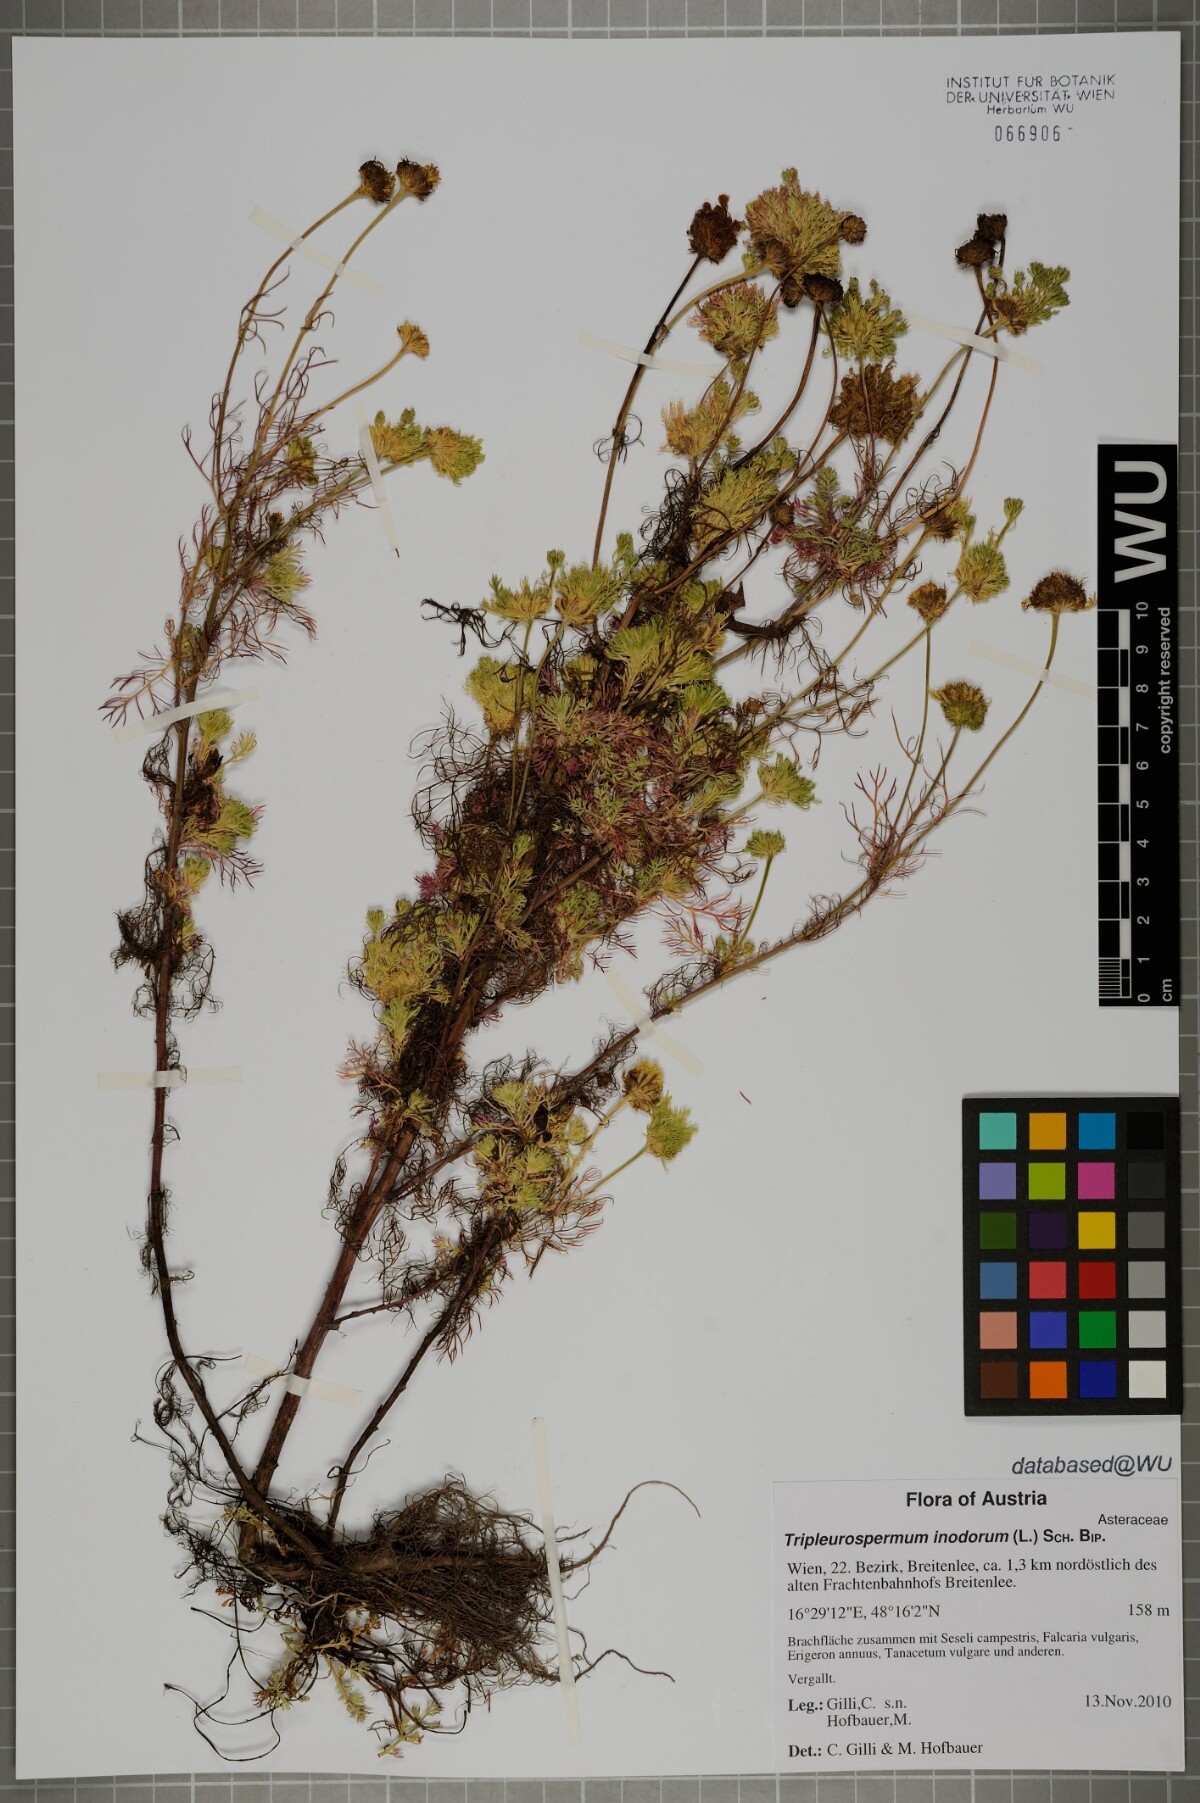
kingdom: Plantae
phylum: Tracheophyta
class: Magnoliopsida
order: Asterales
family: Asteraceae
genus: Tripleurospermum
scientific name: Tripleurospermum inodorum
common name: Scentless mayweed
